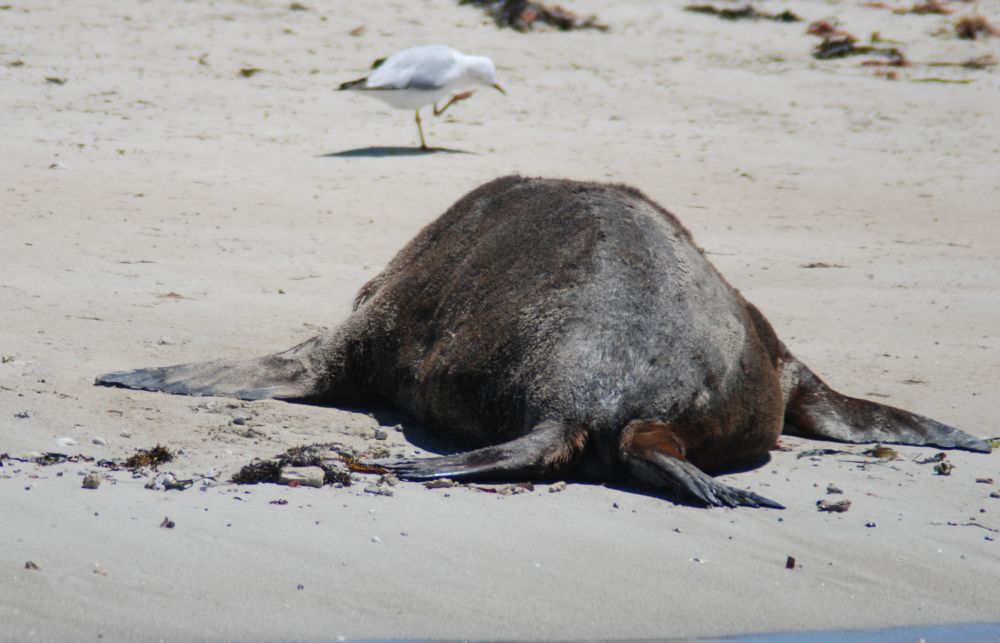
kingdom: Animalia
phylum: Chordata
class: Mammalia
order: Carnivora
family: Otariidae
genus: Neophoca
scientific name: Neophoca cinerea
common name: Australian sea lion
